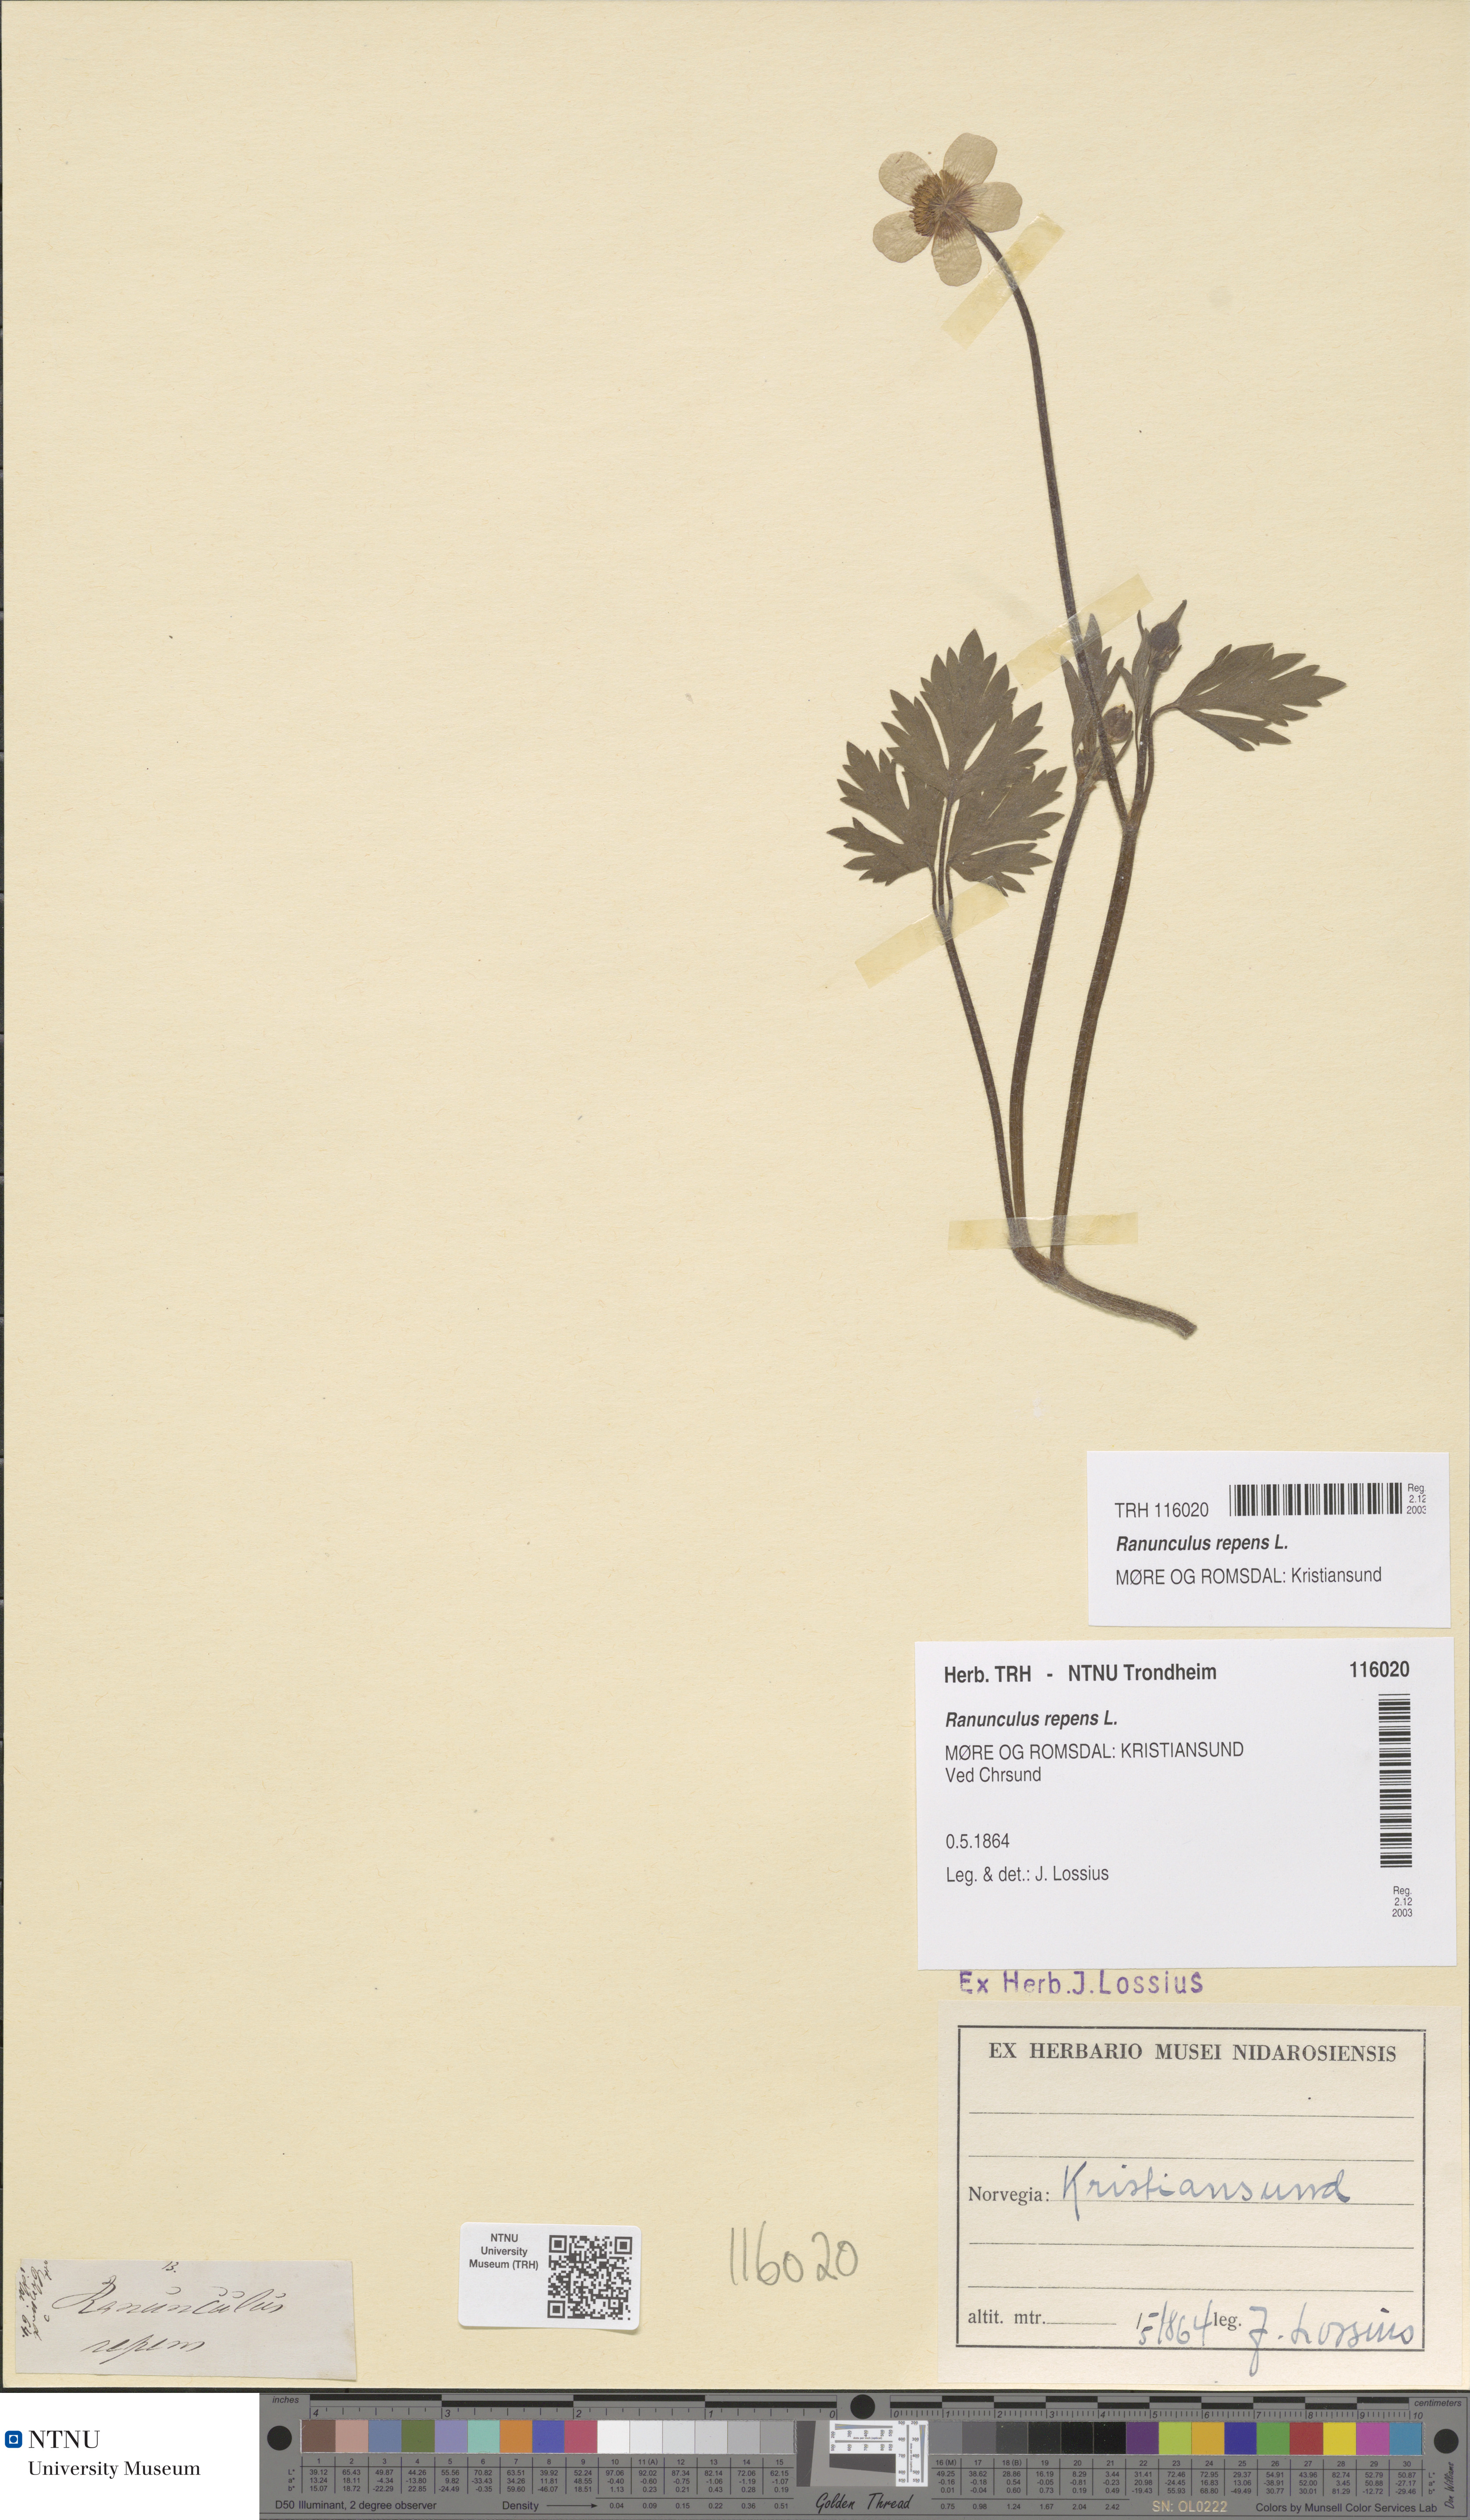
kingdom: Plantae
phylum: Tracheophyta
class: Magnoliopsida
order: Ranunculales
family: Ranunculaceae
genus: Ranunculus
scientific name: Ranunculus repens
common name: Creeping buttercup
